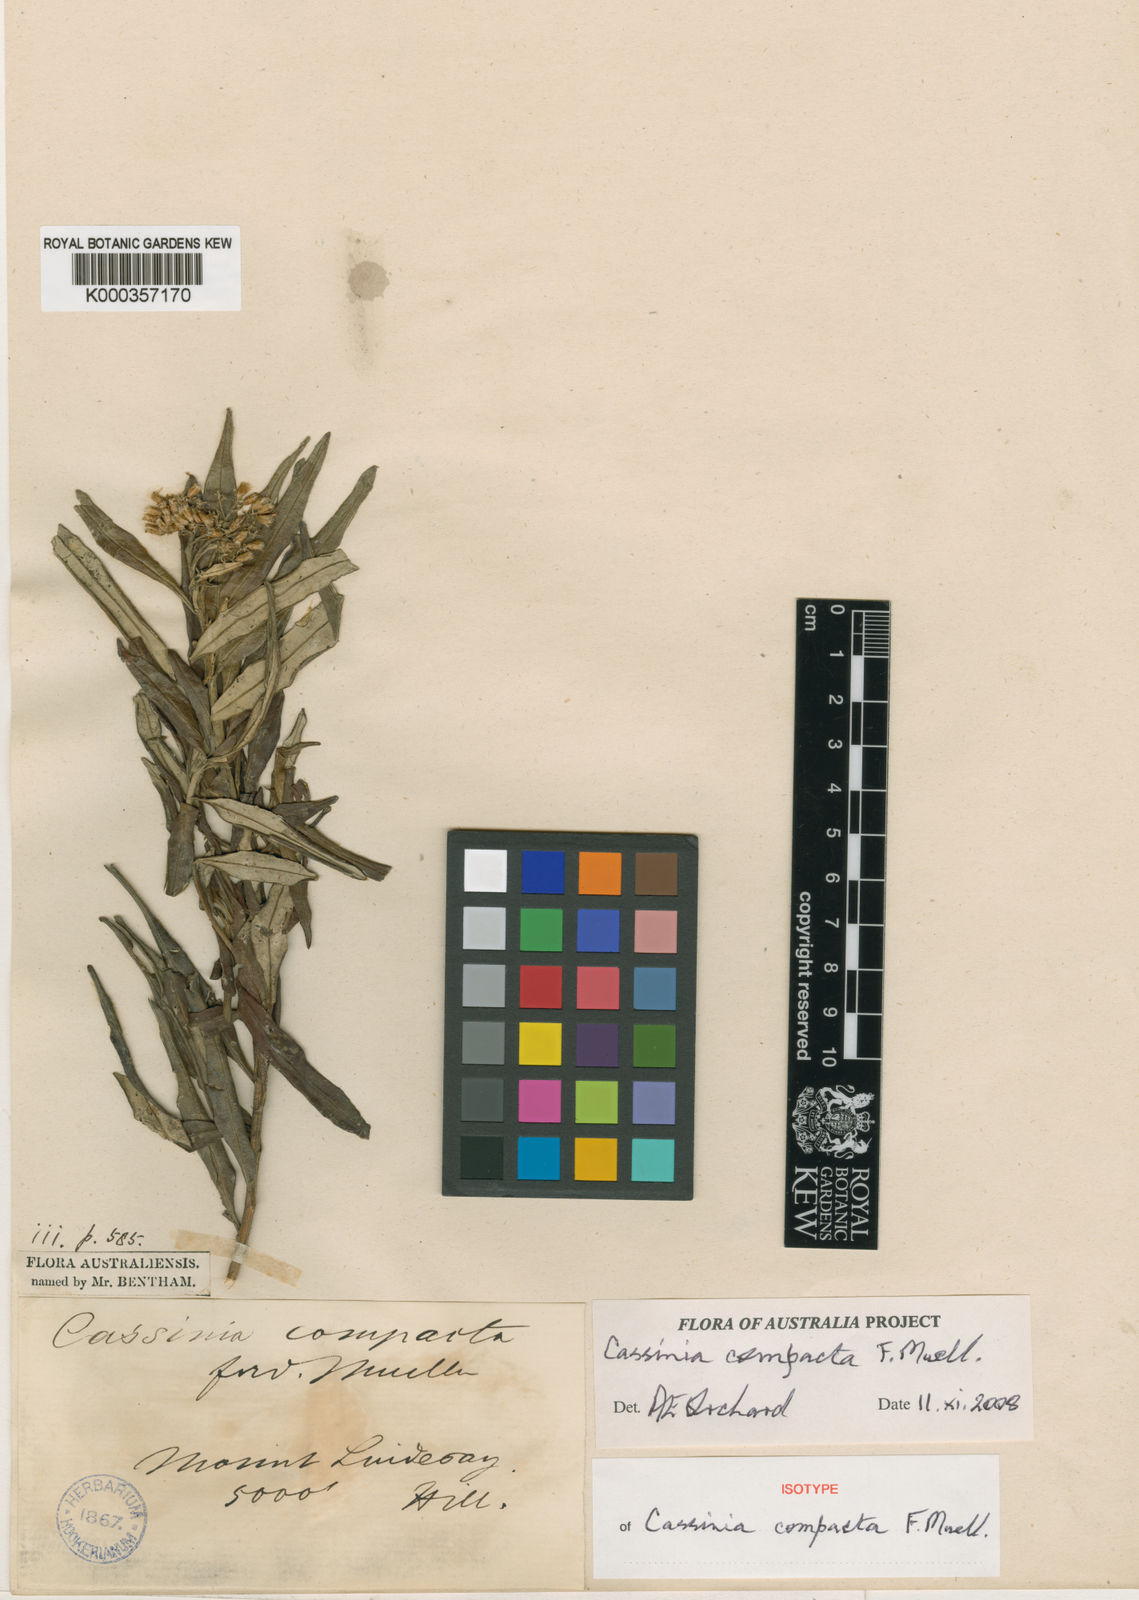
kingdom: Plantae
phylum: Tracheophyta
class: Magnoliopsida
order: Asterales
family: Asteraceae
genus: Cassinia
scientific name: Cassinia compacta
